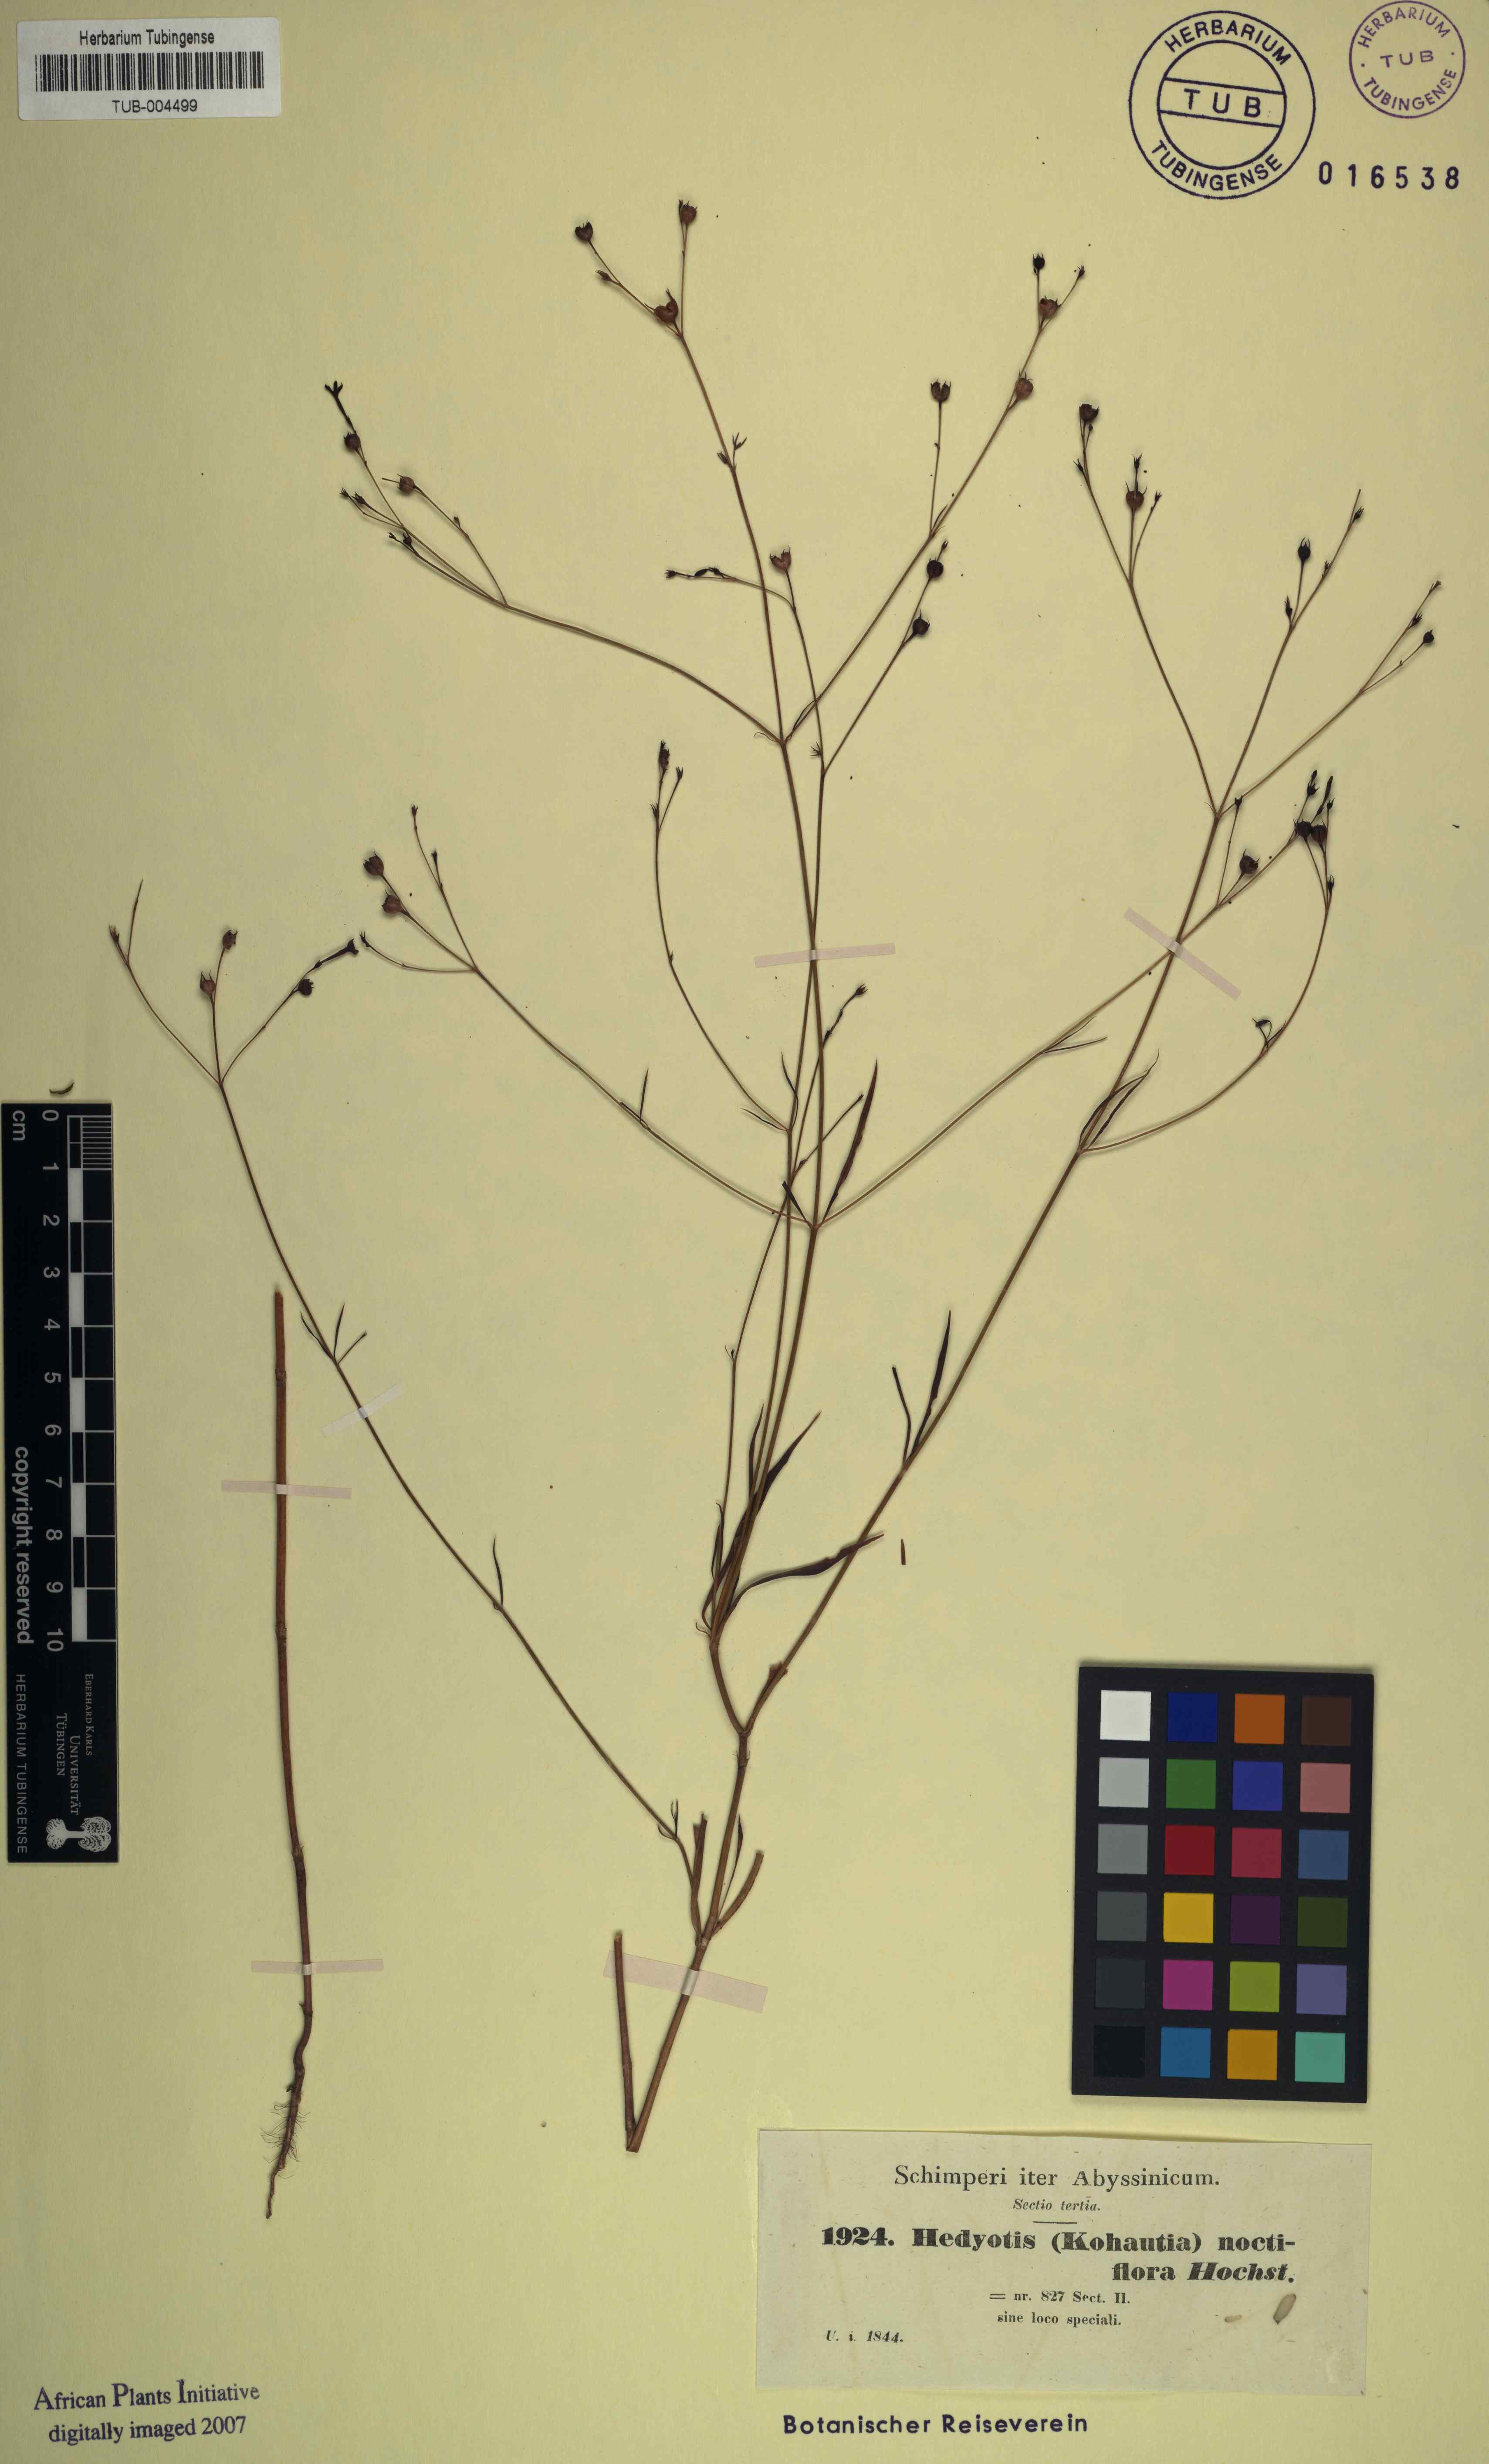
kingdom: Plantae
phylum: Tracheophyta
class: Magnoliopsida
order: Gentianales
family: Rubiaceae
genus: Kohautia
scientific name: Kohautia tenuis
